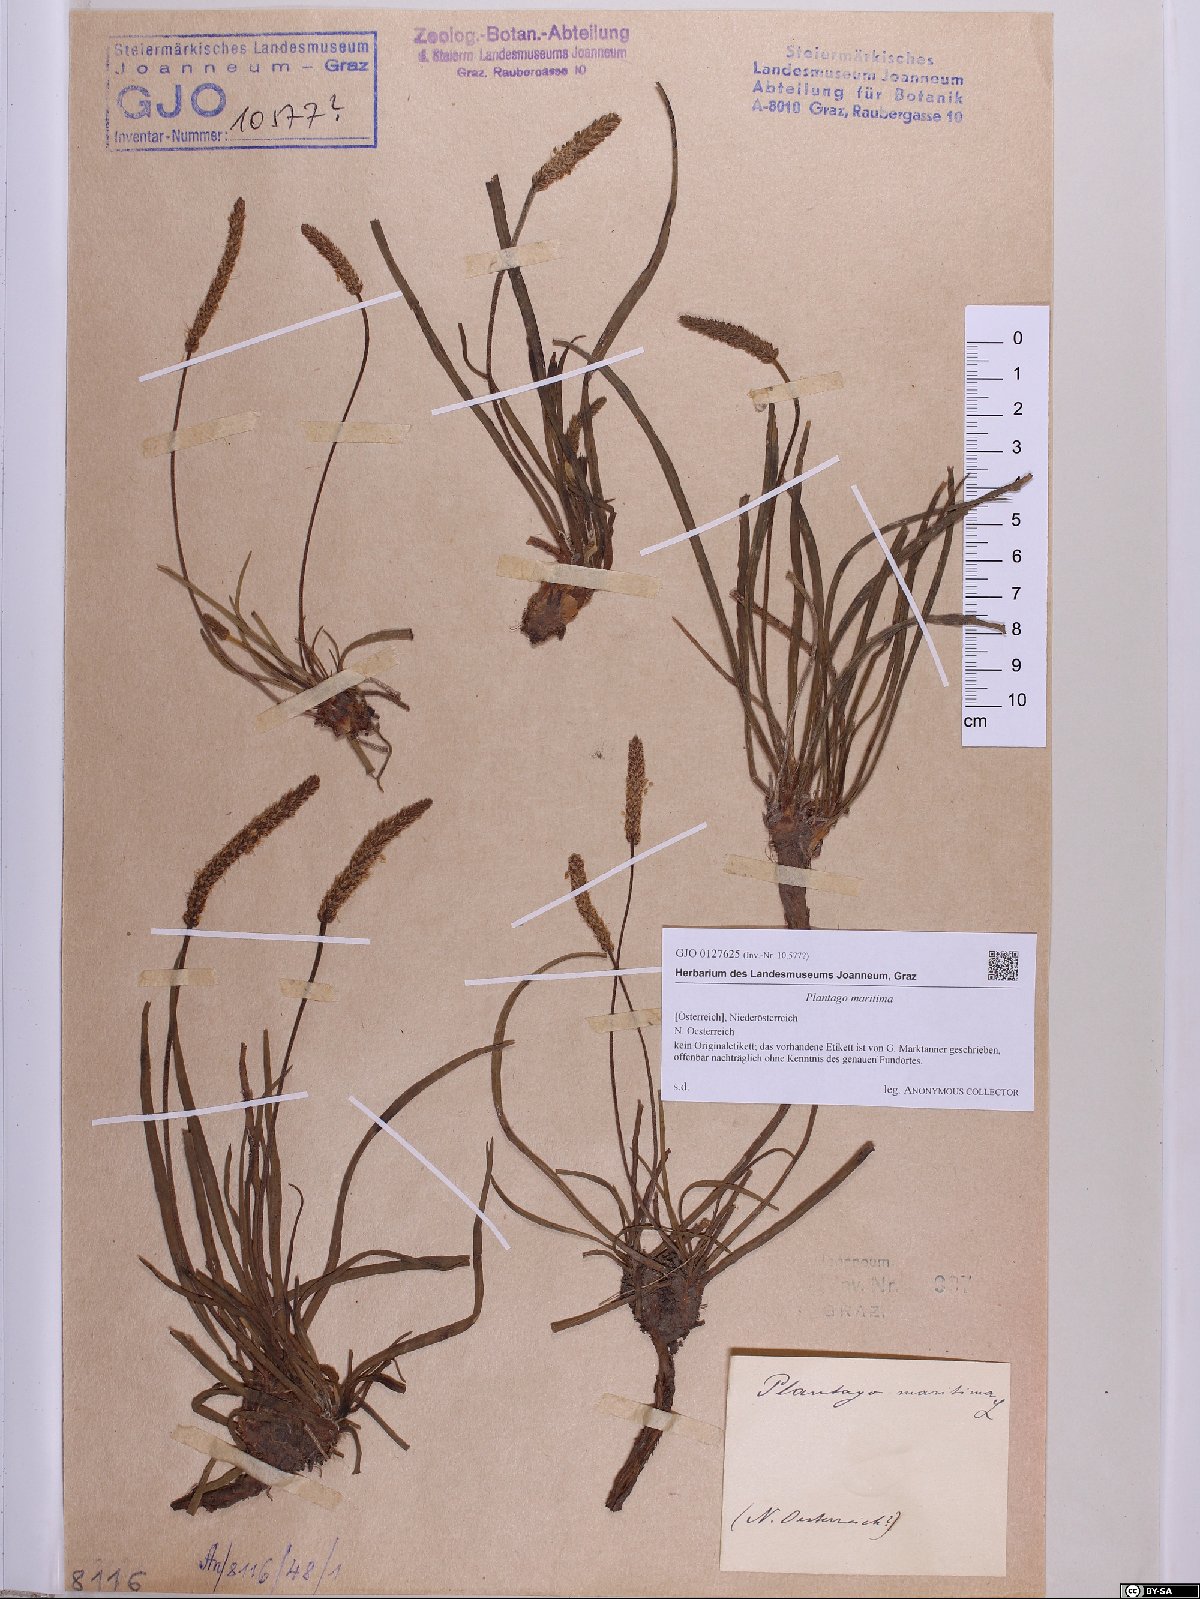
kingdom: Plantae
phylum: Tracheophyta
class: Magnoliopsida
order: Lamiales
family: Plantaginaceae
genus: Plantago
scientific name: Plantago maritima
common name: Sea plantain
